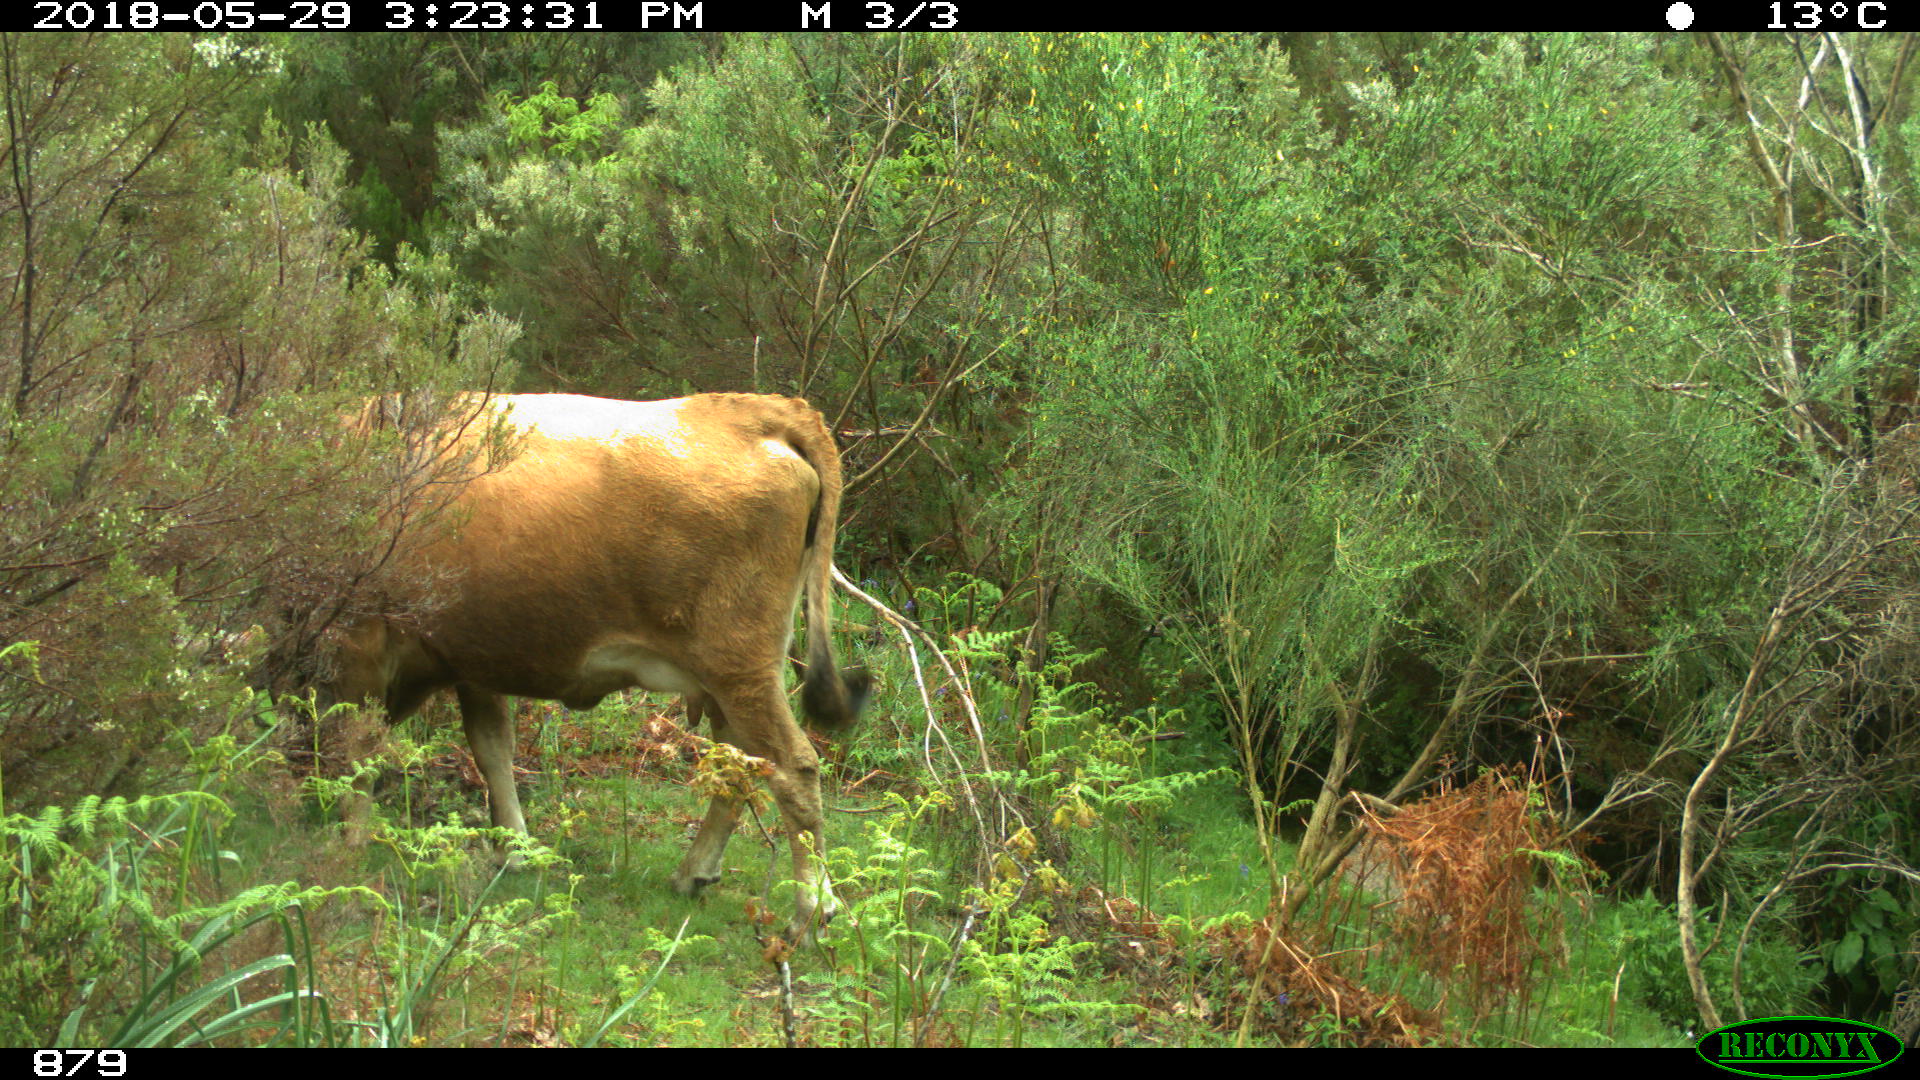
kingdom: Animalia
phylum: Chordata
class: Mammalia
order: Artiodactyla
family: Bovidae
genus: Bos
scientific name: Bos taurus
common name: Domesticated cattle
